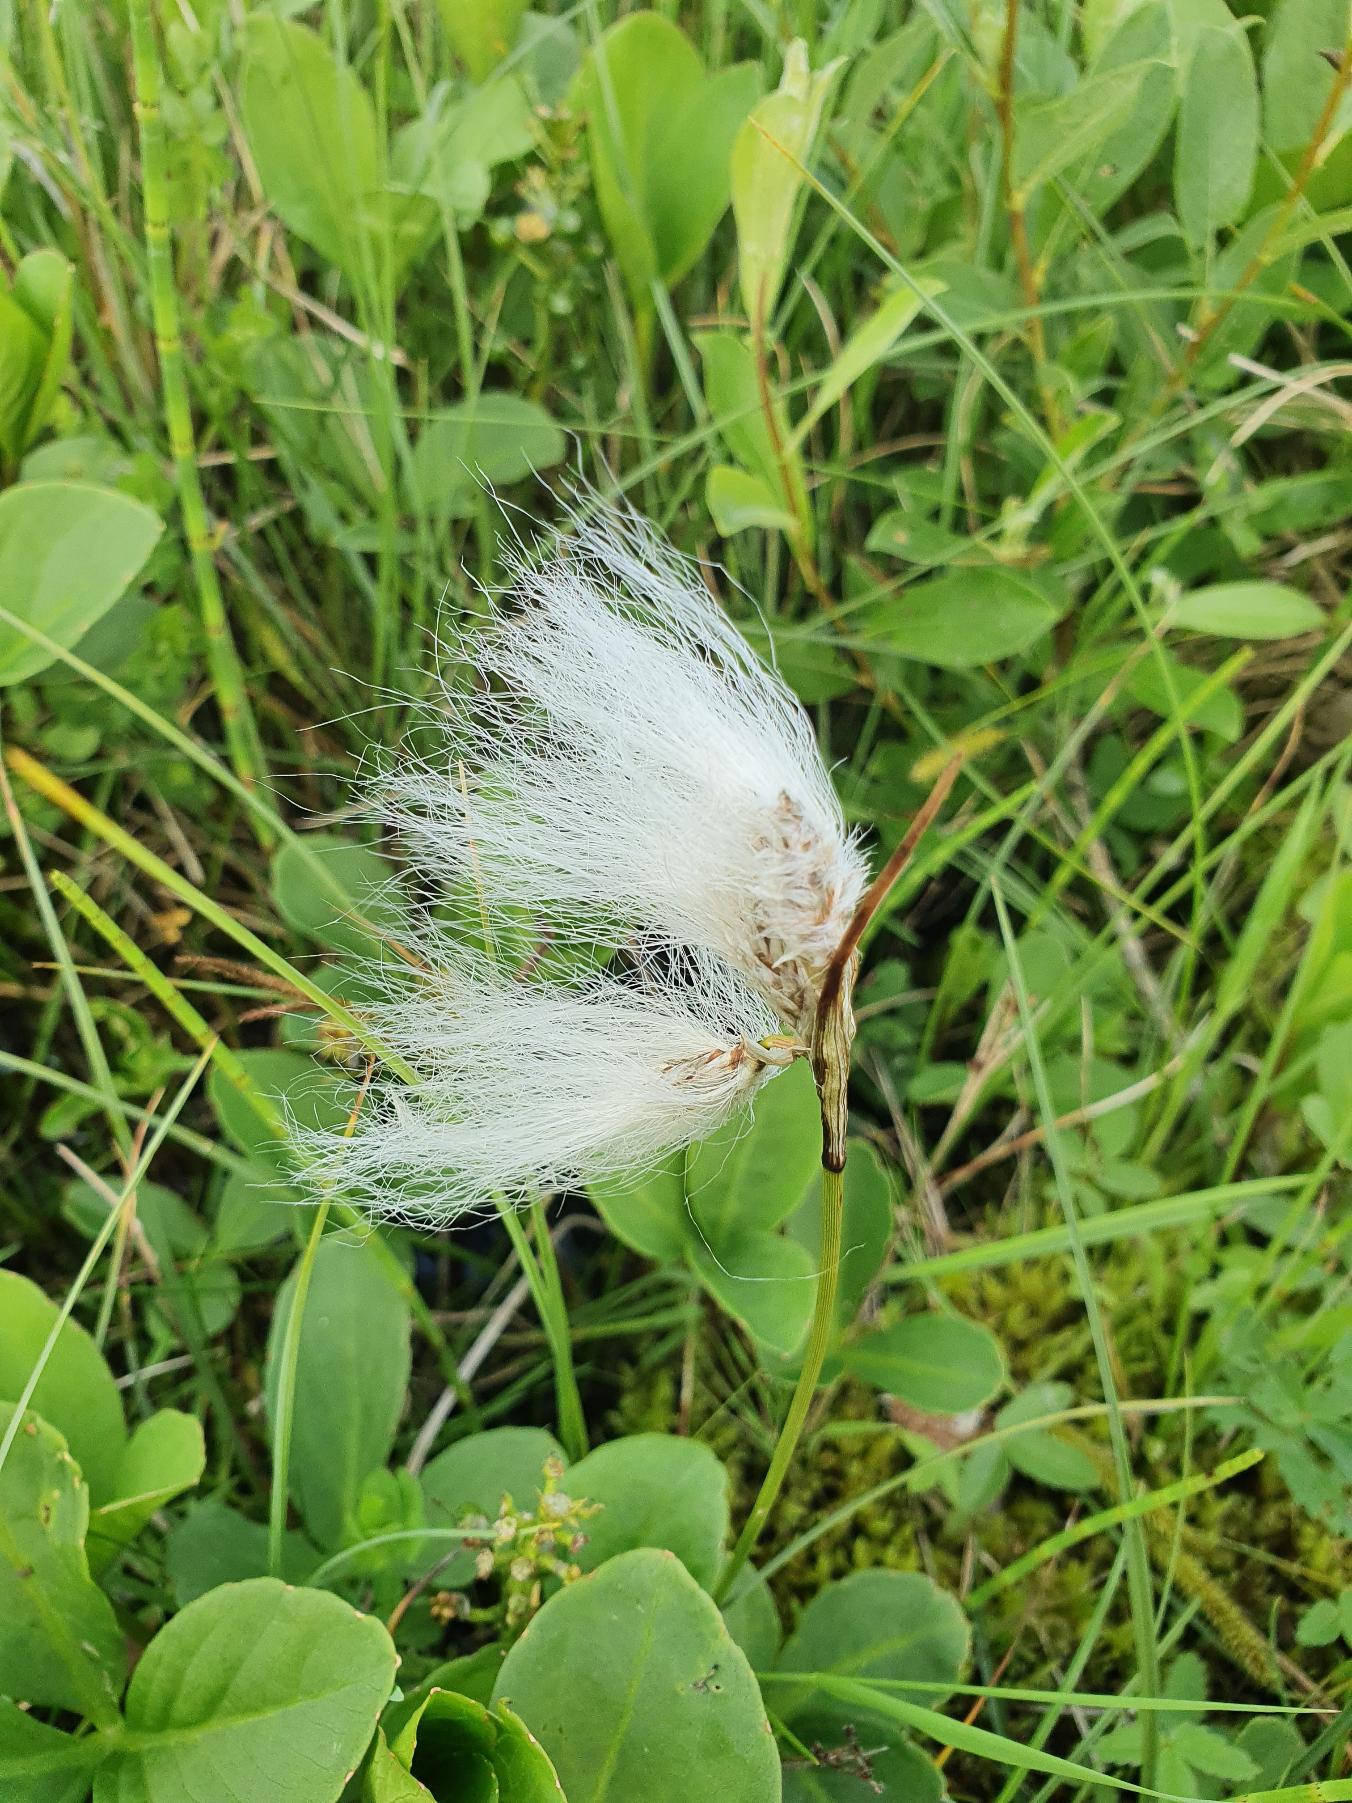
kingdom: Plantae
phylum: Tracheophyta
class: Liliopsida
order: Poales
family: Cyperaceae
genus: Eriophorum
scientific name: Eriophorum
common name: Kæruld (Eriophorum-slægten)
